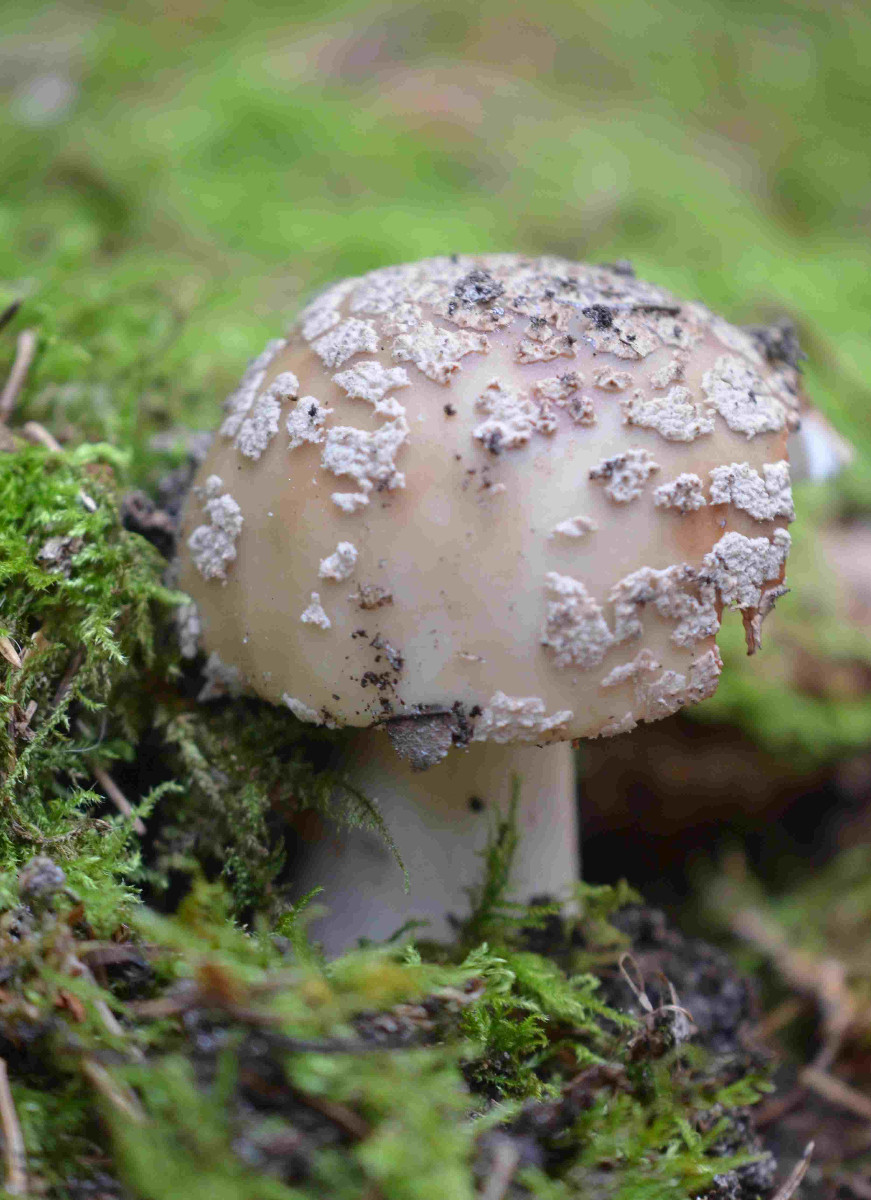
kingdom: Fungi
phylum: Basidiomycota
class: Agaricomycetes
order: Agaricales
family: Amanitaceae
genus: Amanita
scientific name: Amanita rubescens
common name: rødmende fluesvamp
